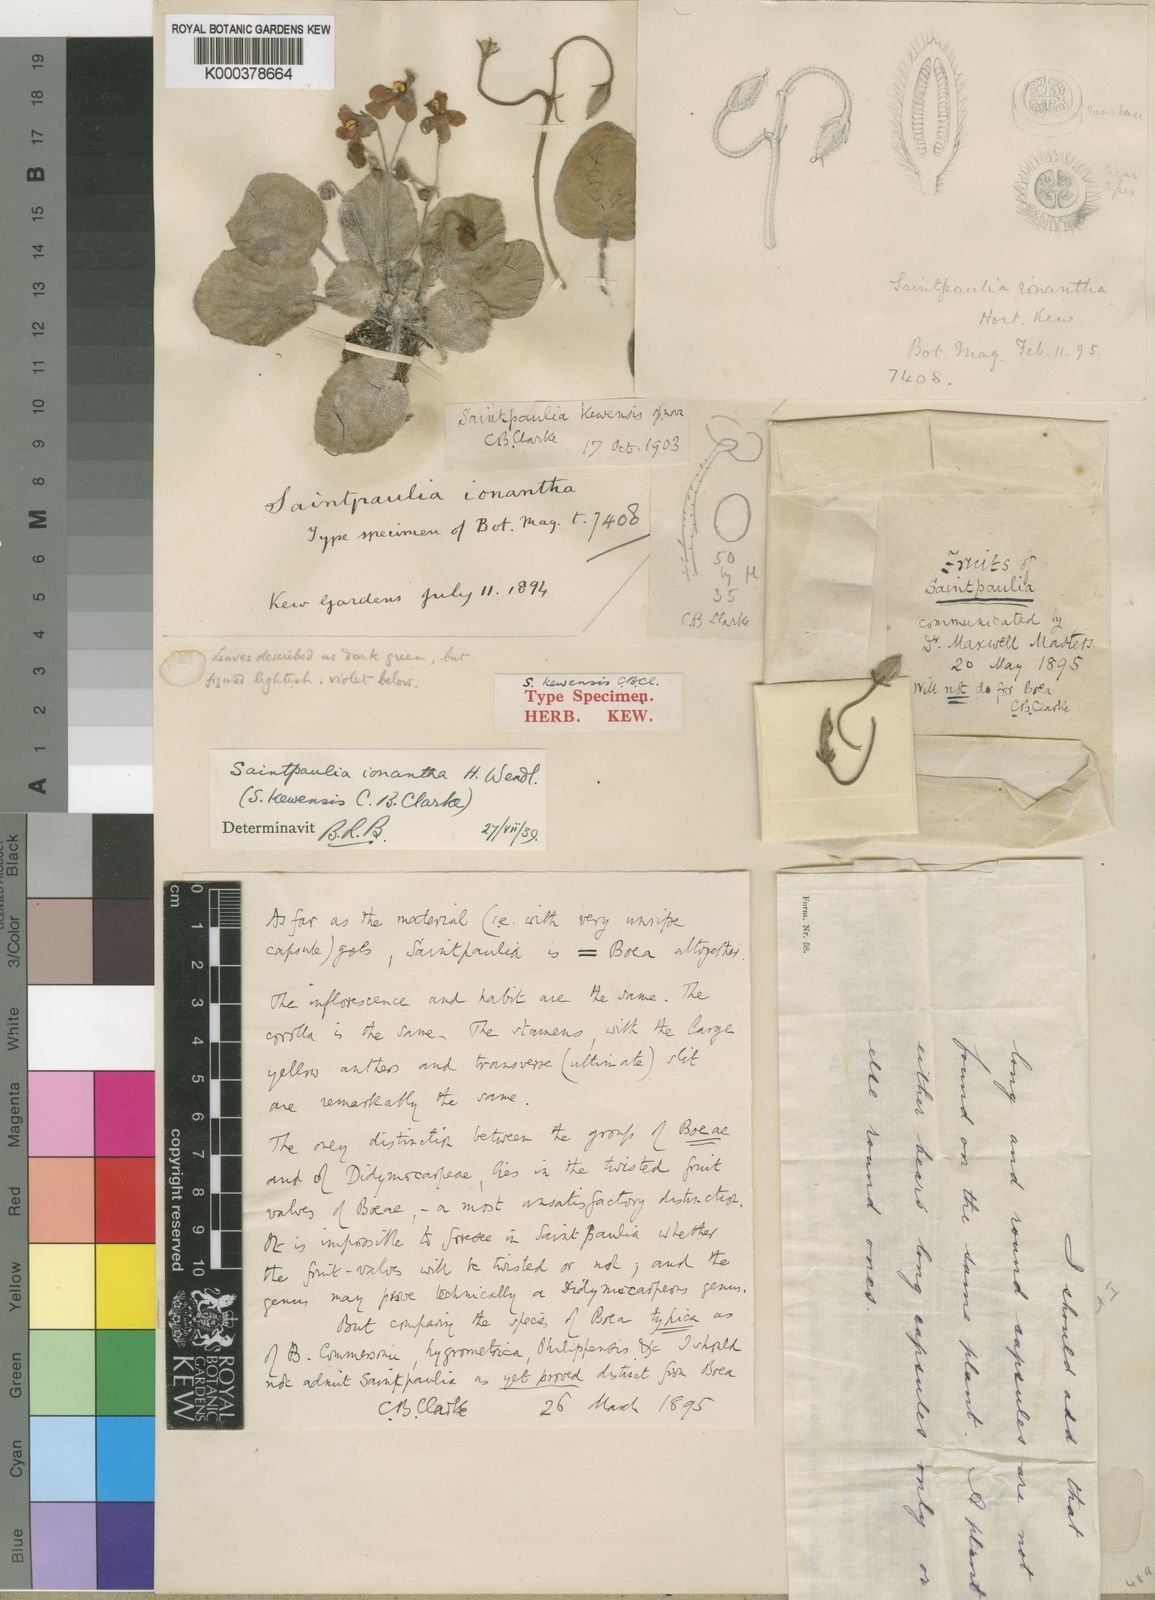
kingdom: Plantae
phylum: Tracheophyta
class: Magnoliopsida
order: Lamiales
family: Gesneriaceae
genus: Streptocarpus
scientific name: Streptocarpus ionanthus
